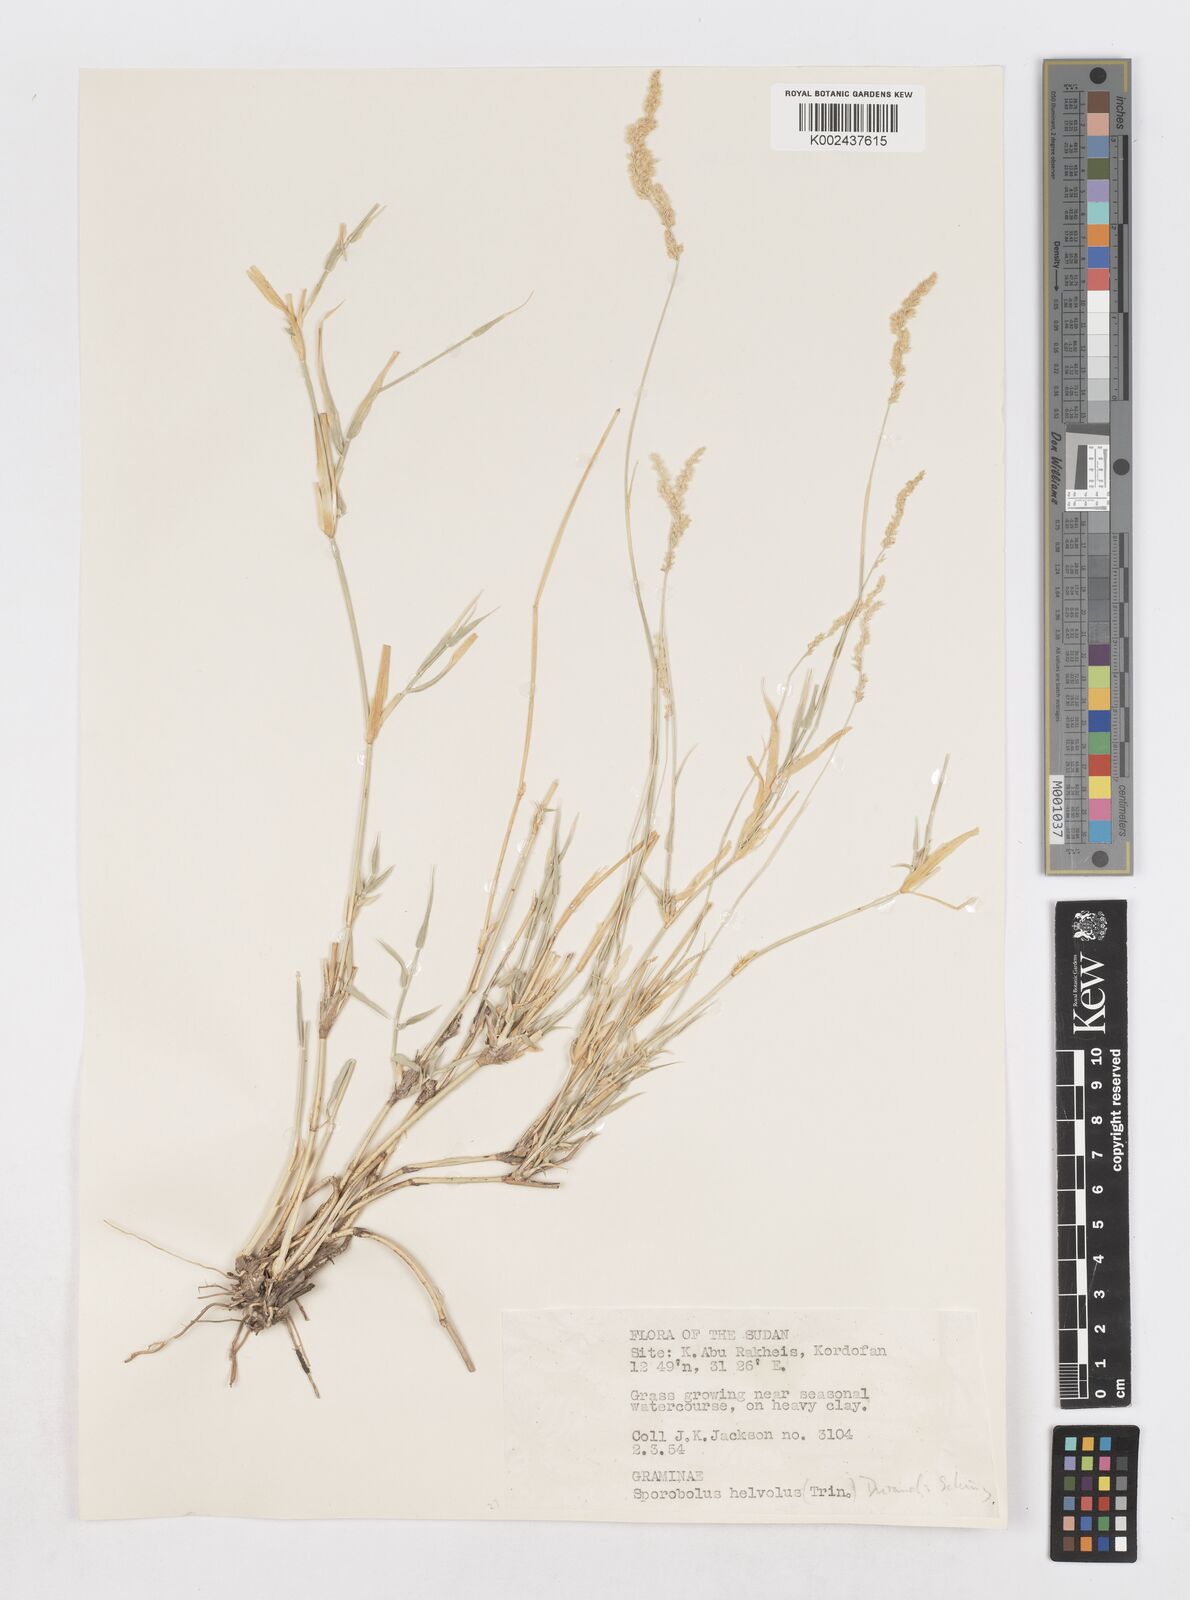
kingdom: Plantae
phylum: Tracheophyta
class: Liliopsida
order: Poales
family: Poaceae
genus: Sporobolus
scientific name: Sporobolus helvolus
